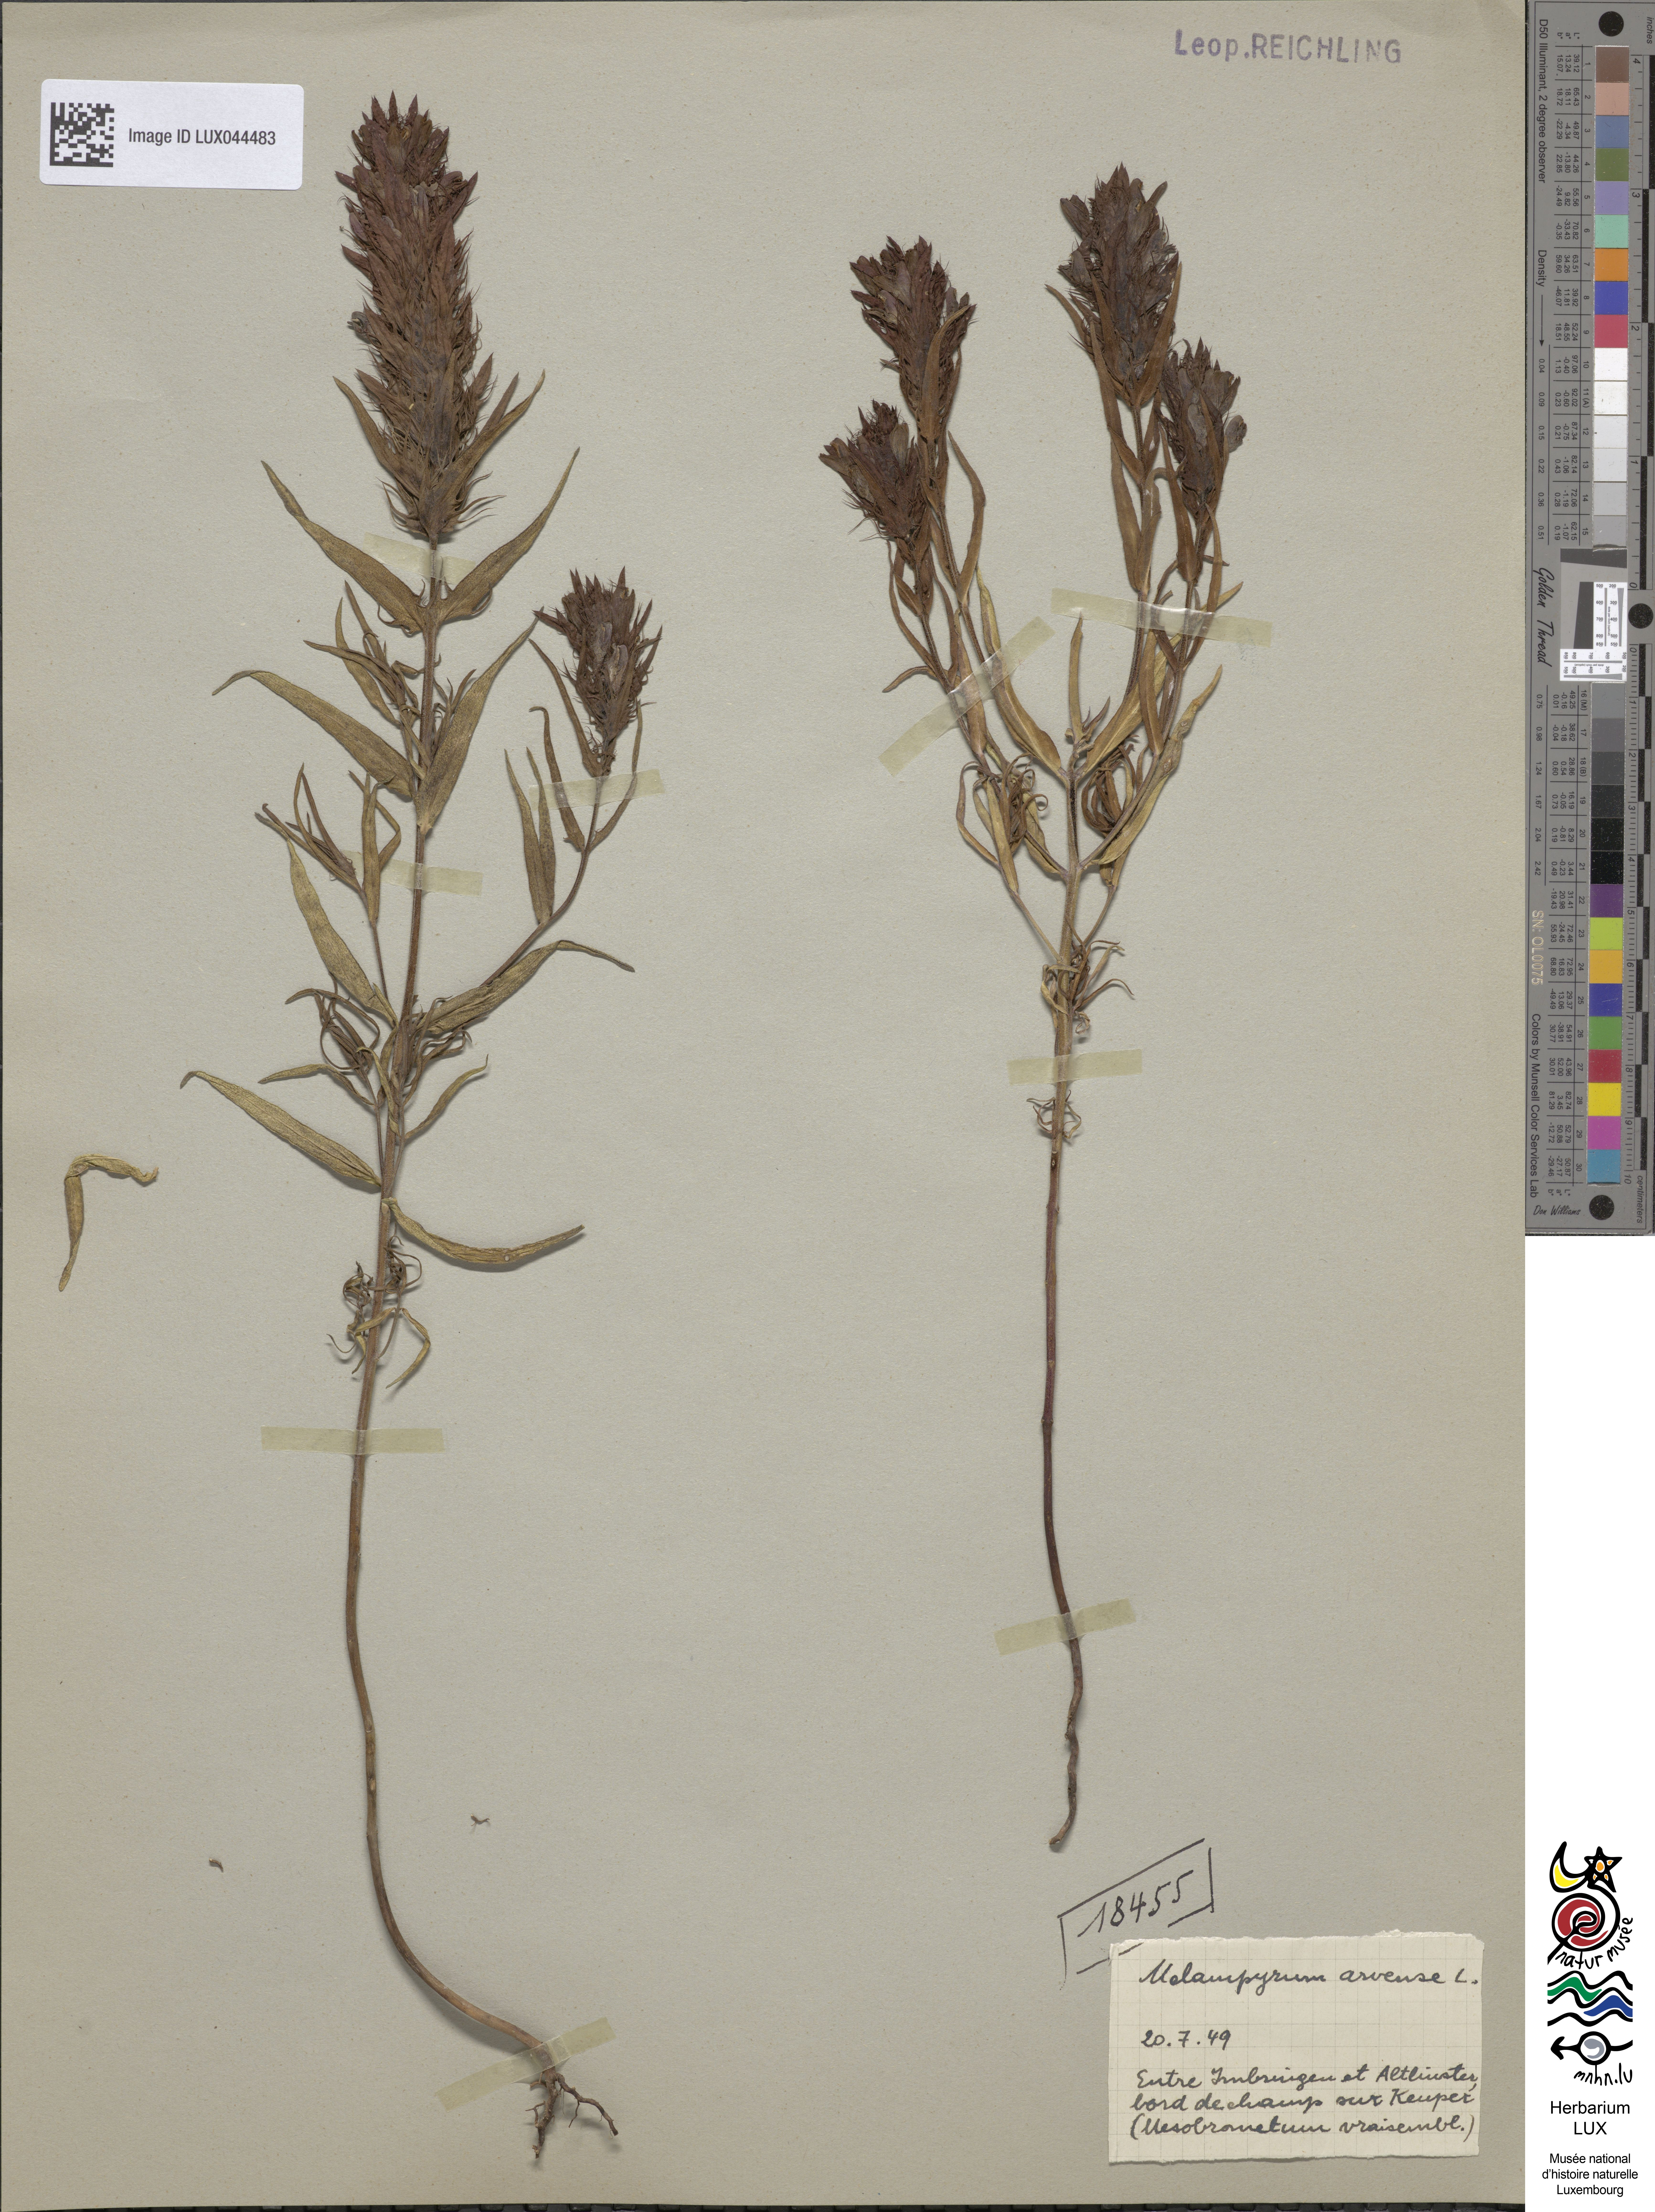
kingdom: Plantae
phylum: Tracheophyta
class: Magnoliopsida
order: Lamiales
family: Orobanchaceae
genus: Melampyrum
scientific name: Melampyrum arvense
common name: Field cow-wheat
